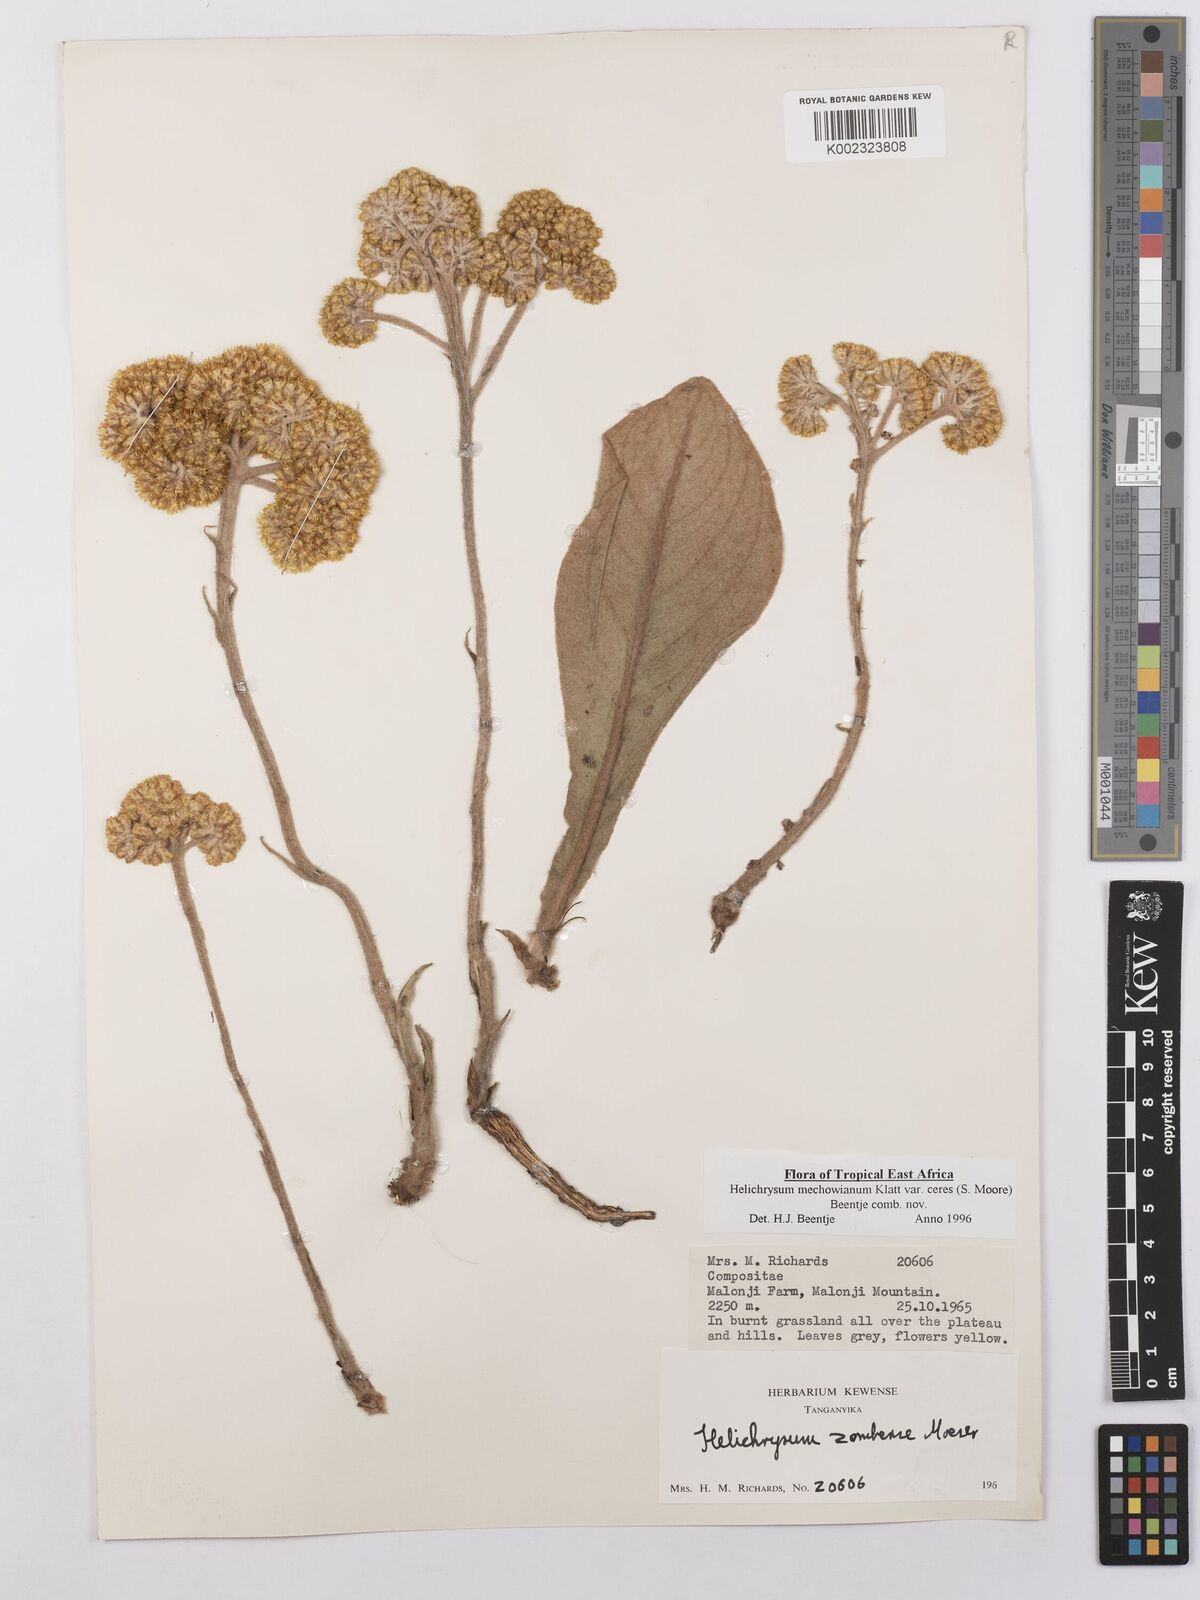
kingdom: Plantae
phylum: Tracheophyta
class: Magnoliopsida
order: Asterales
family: Asteraceae
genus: Helichrysum
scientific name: Helichrysum mechowianum
